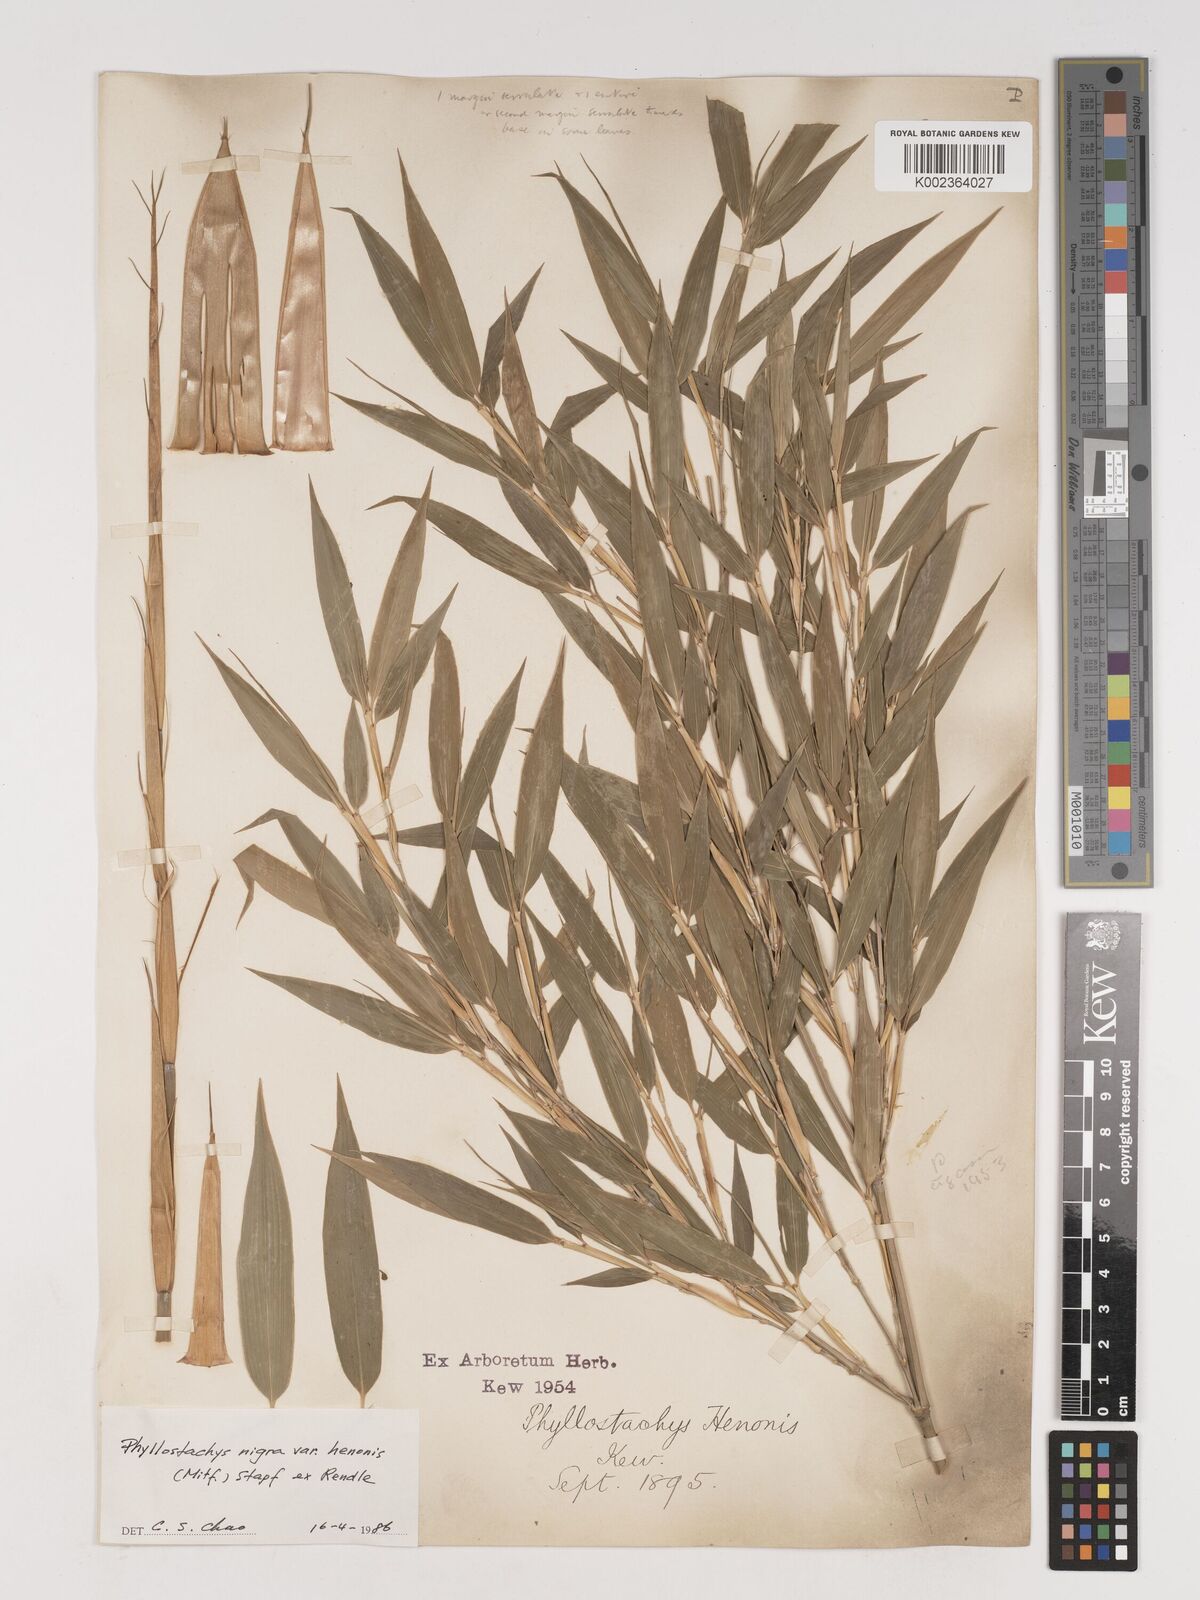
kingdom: Plantae
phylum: Tracheophyta
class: Liliopsida
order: Poales
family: Poaceae
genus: Phyllostachys
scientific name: Phyllostachys nigra
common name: Black bamboo
